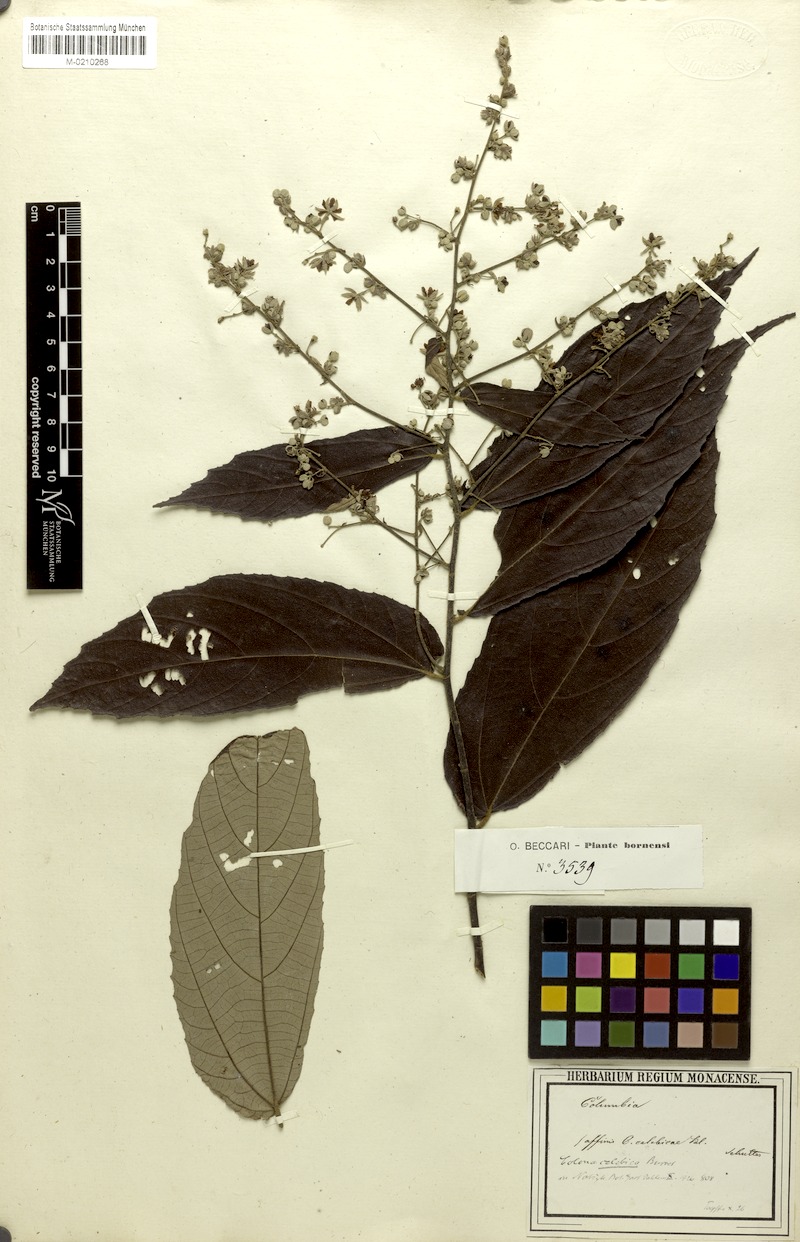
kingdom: Plantae
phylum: Tracheophyta
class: Magnoliopsida
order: Malvales
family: Malvaceae
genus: Colona
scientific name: Colona celebica
